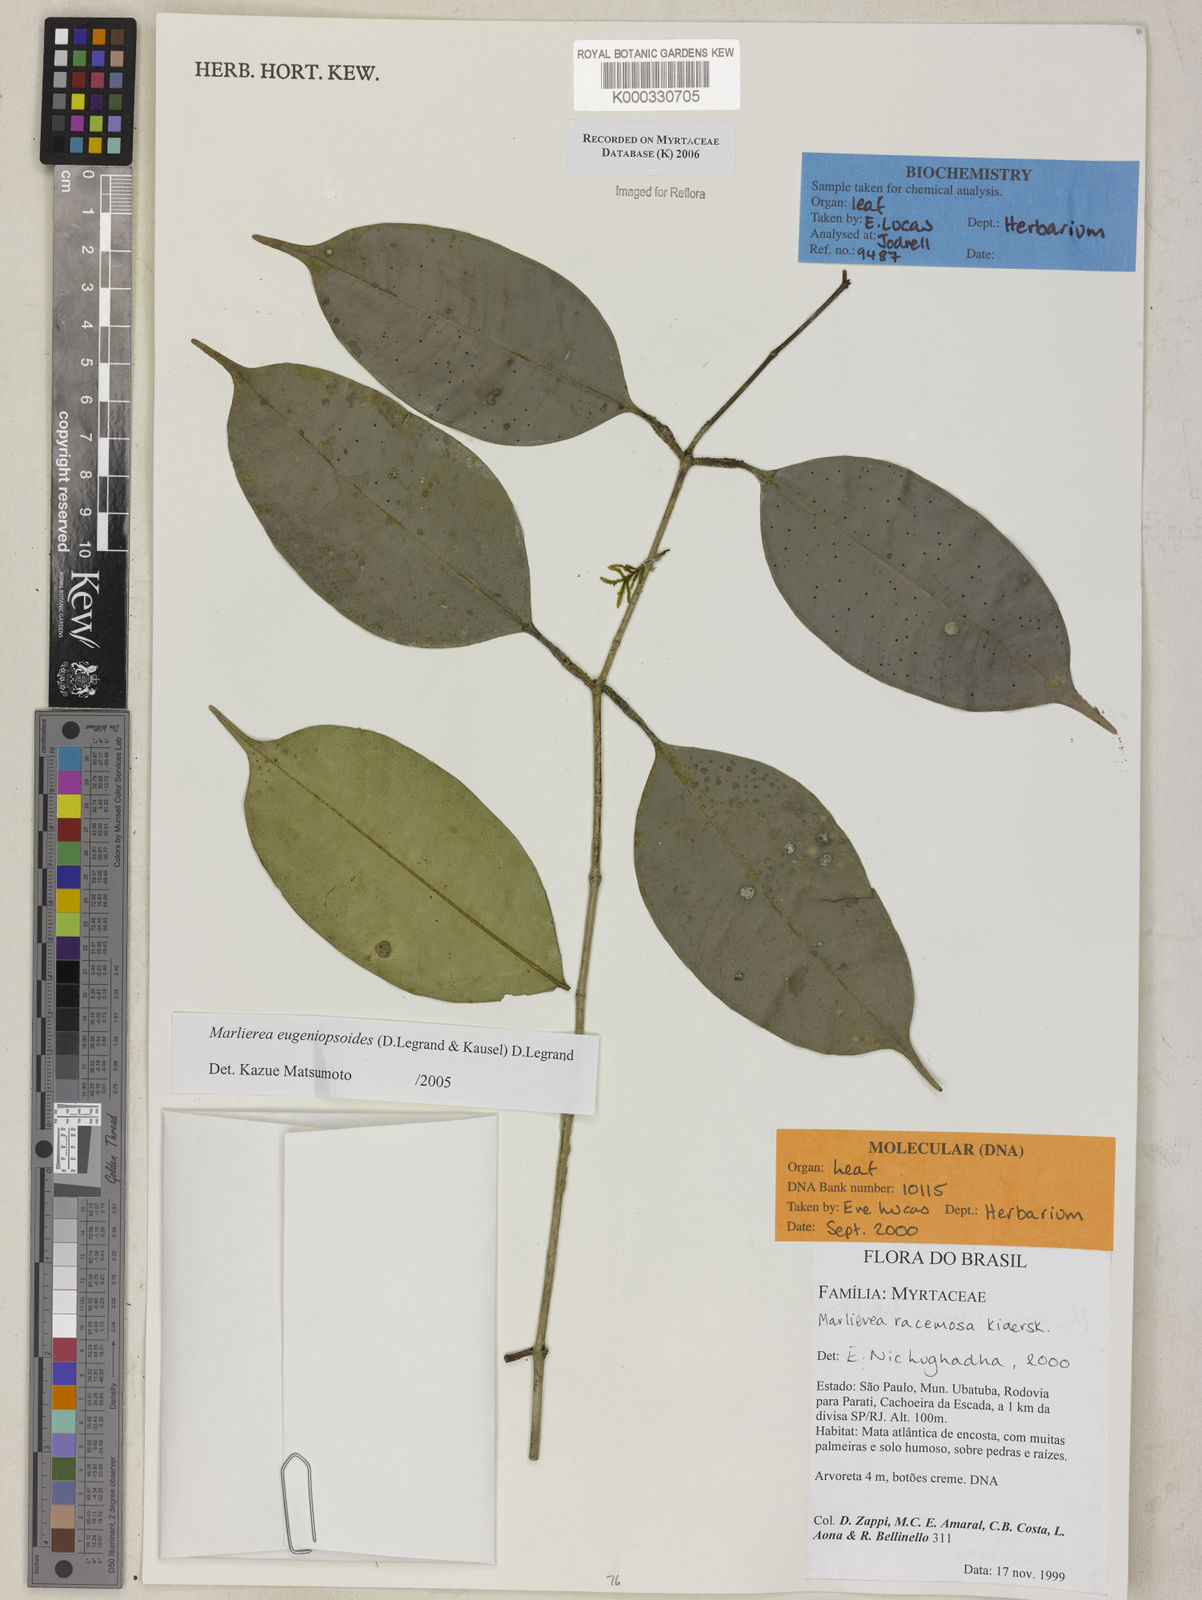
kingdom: Plantae
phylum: Tracheophyta
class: Magnoliopsida
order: Myrtales
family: Myrtaceae
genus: Myrcia
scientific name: Myrcia eugeniopsoides
